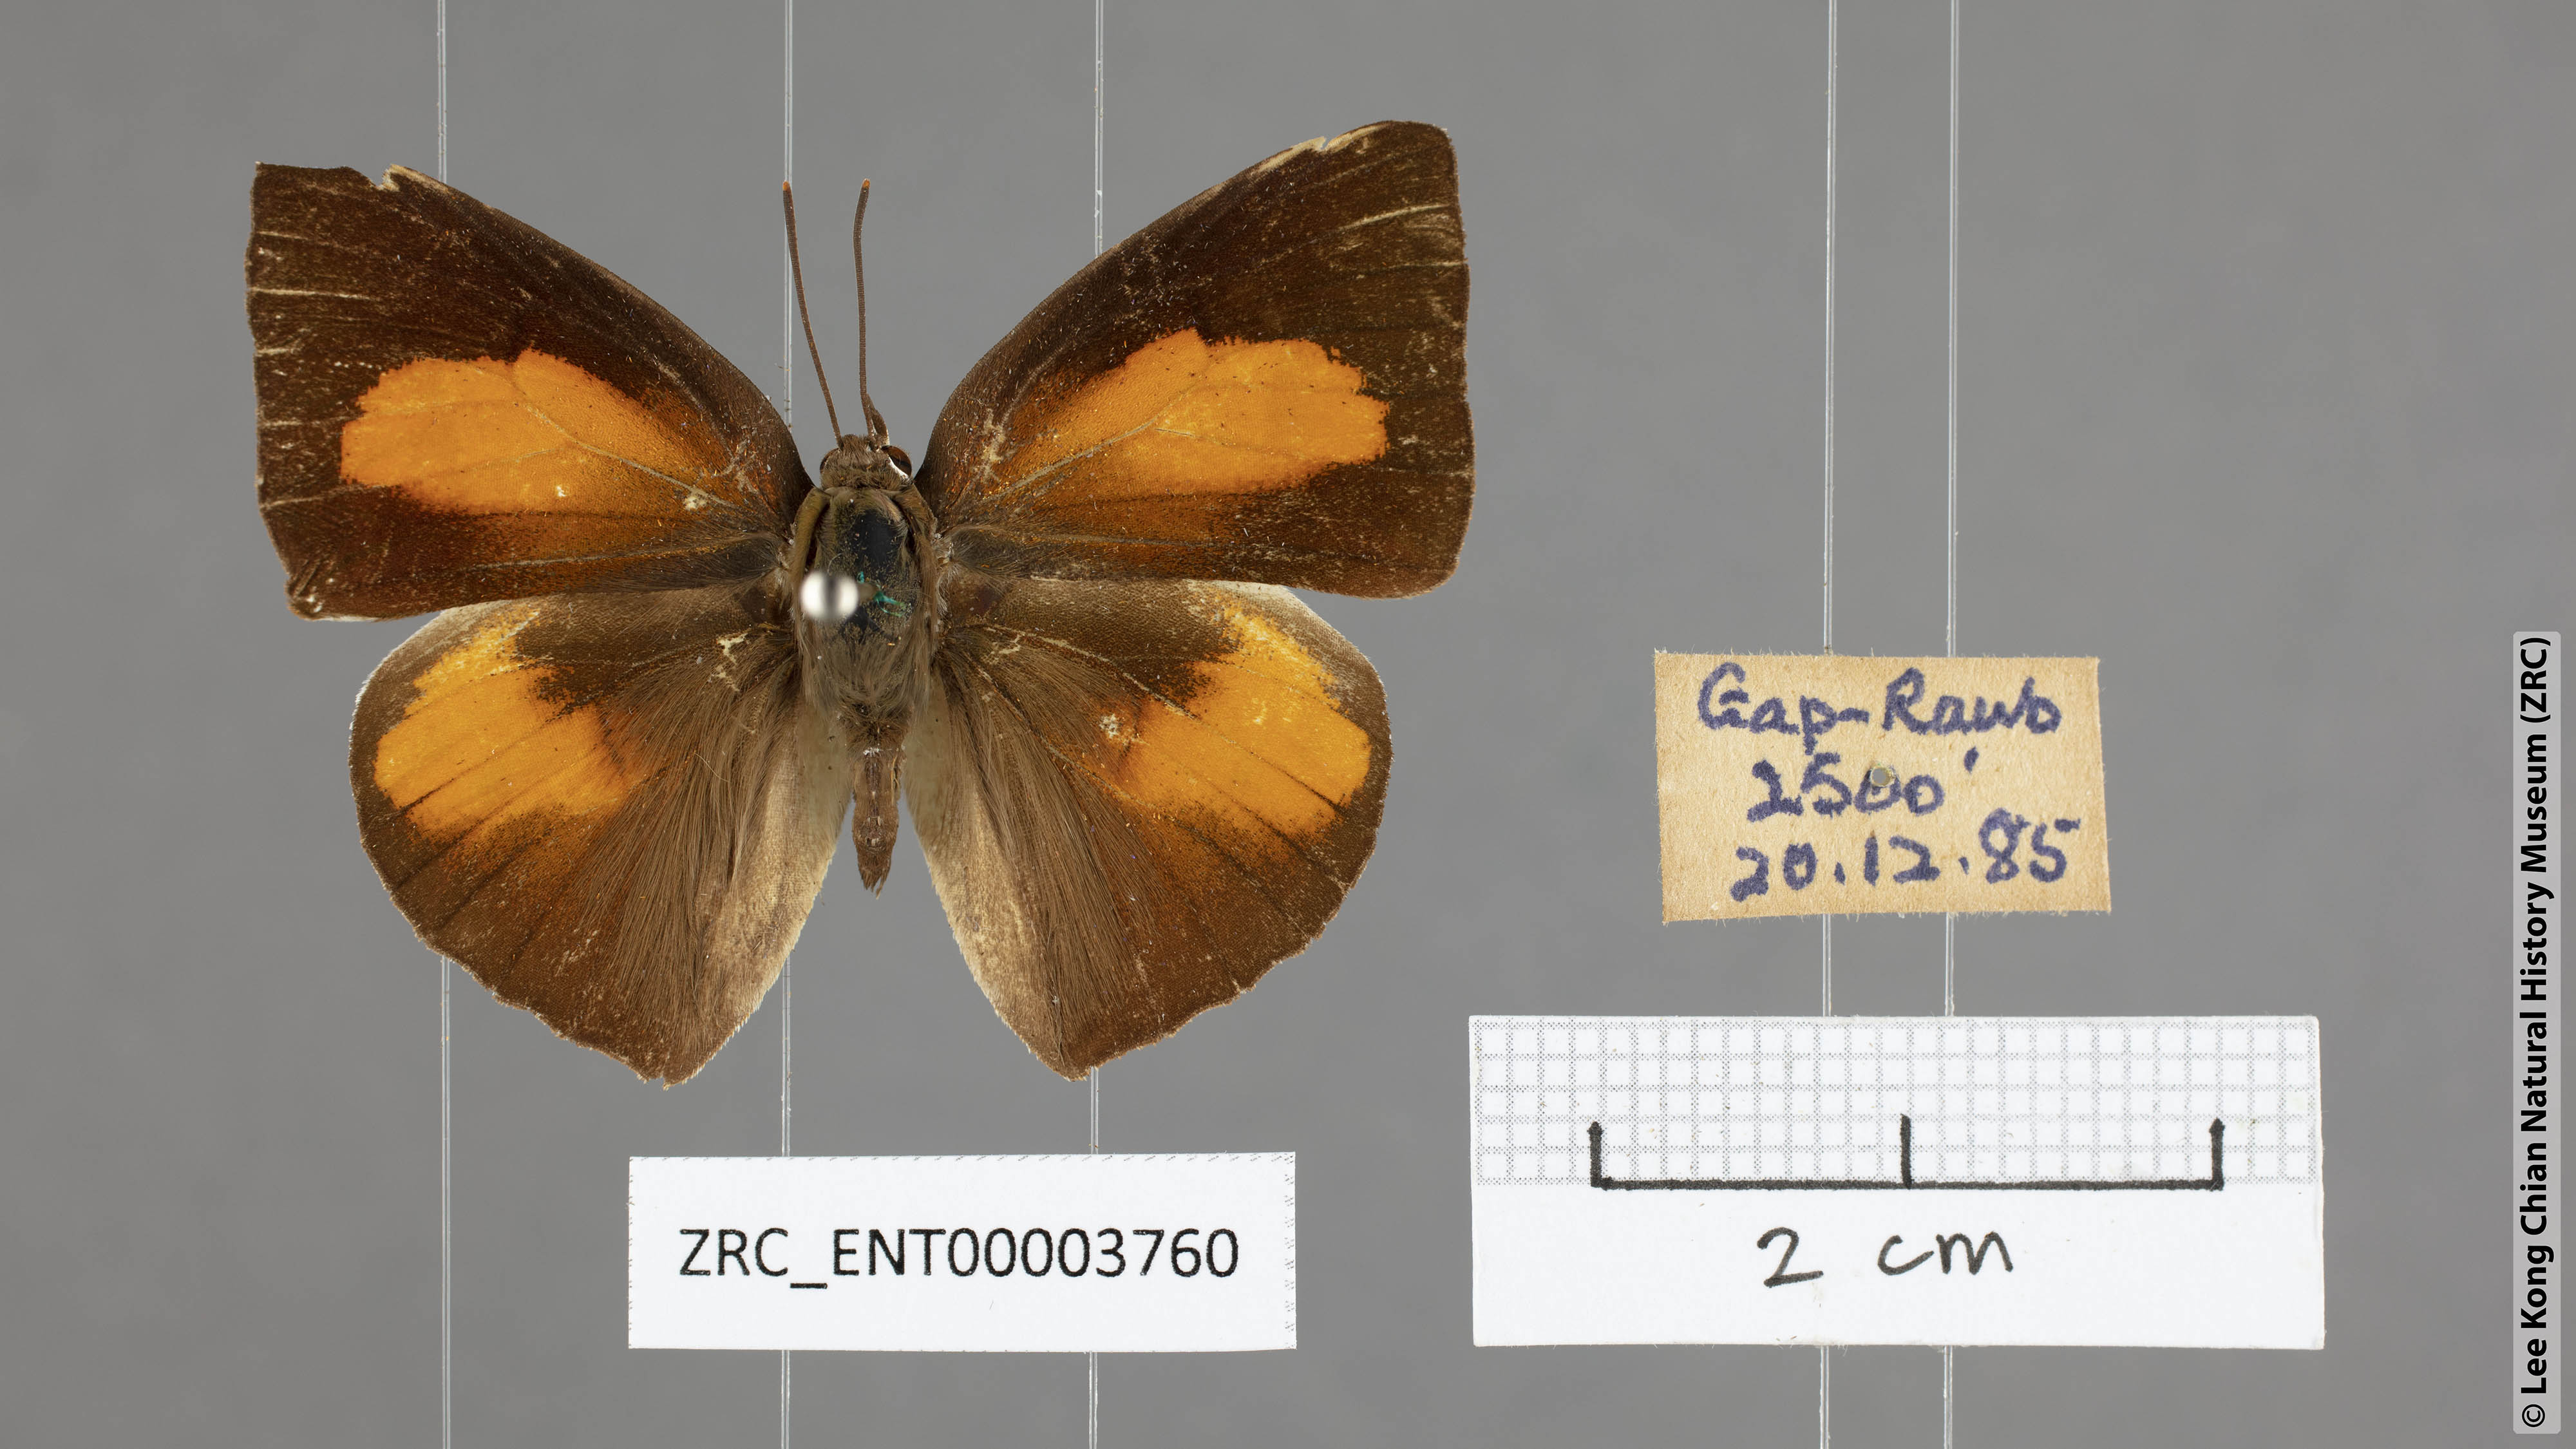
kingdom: Animalia
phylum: Arthropoda
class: Insecta
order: Lepidoptera
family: Lycaenidae
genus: Curetis
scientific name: Curetis sperthis
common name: Rounded sunbeam
